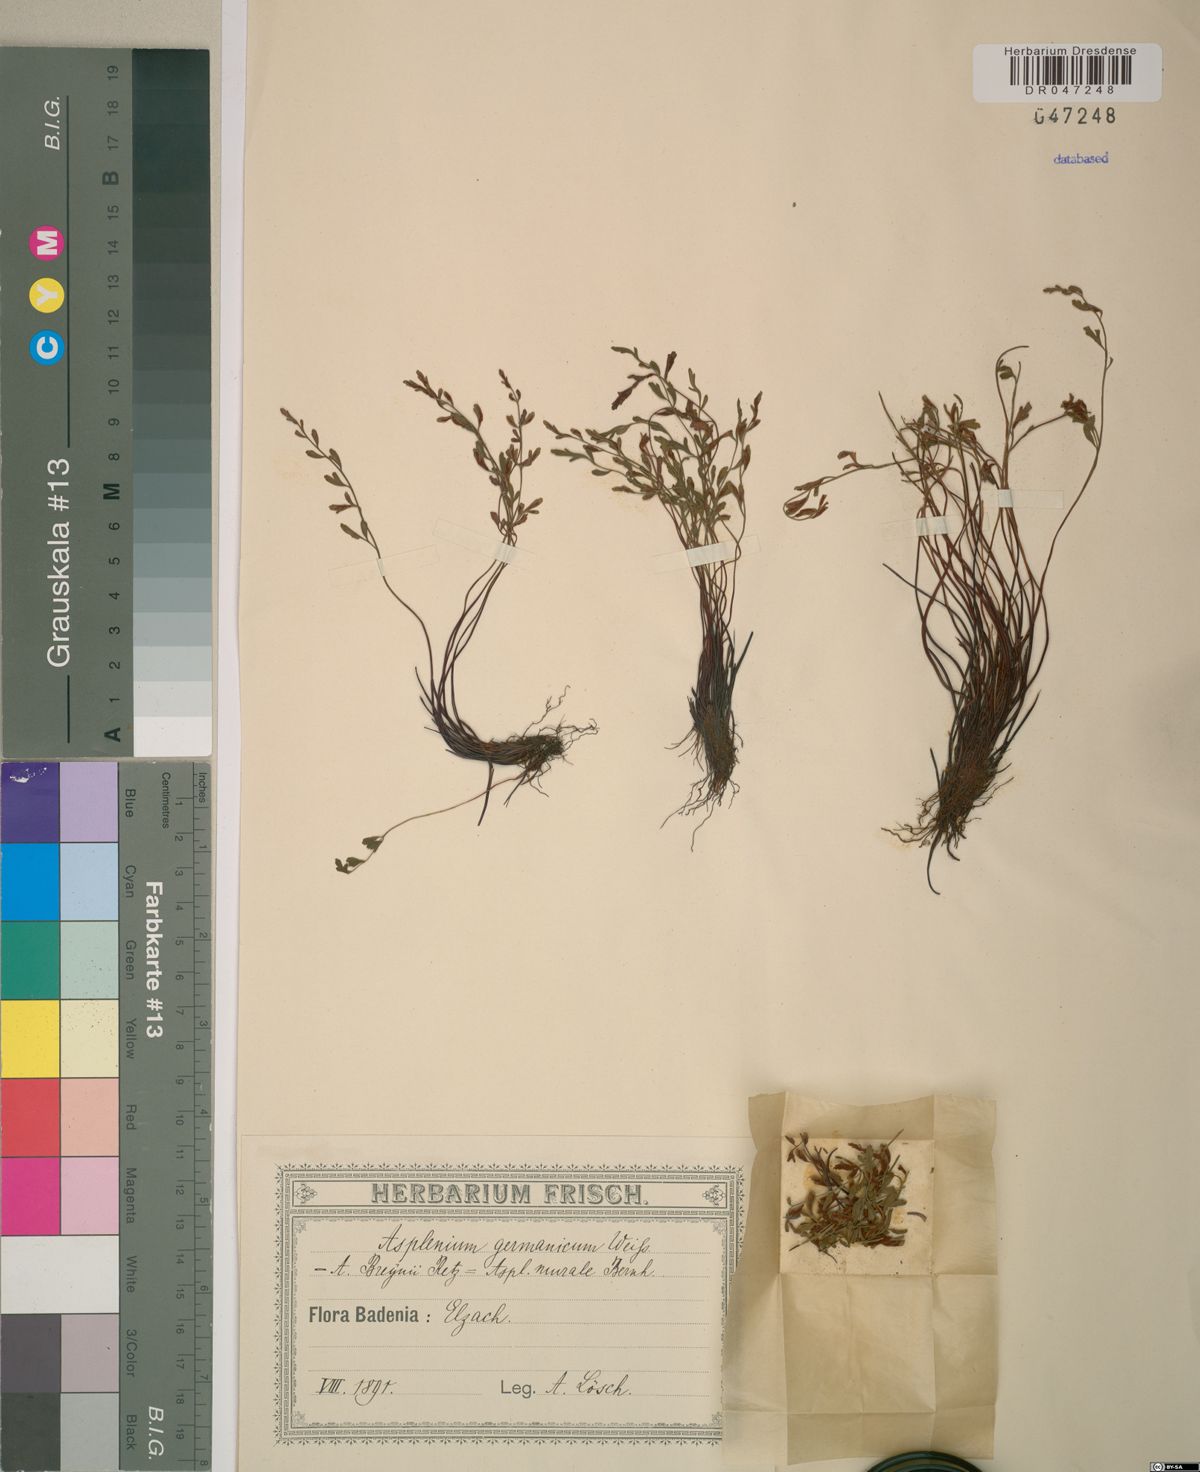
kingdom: Plantae
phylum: Tracheophyta
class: Polypodiopsida
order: Polypodiales
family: Aspleniaceae
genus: Asplenium
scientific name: Asplenium
